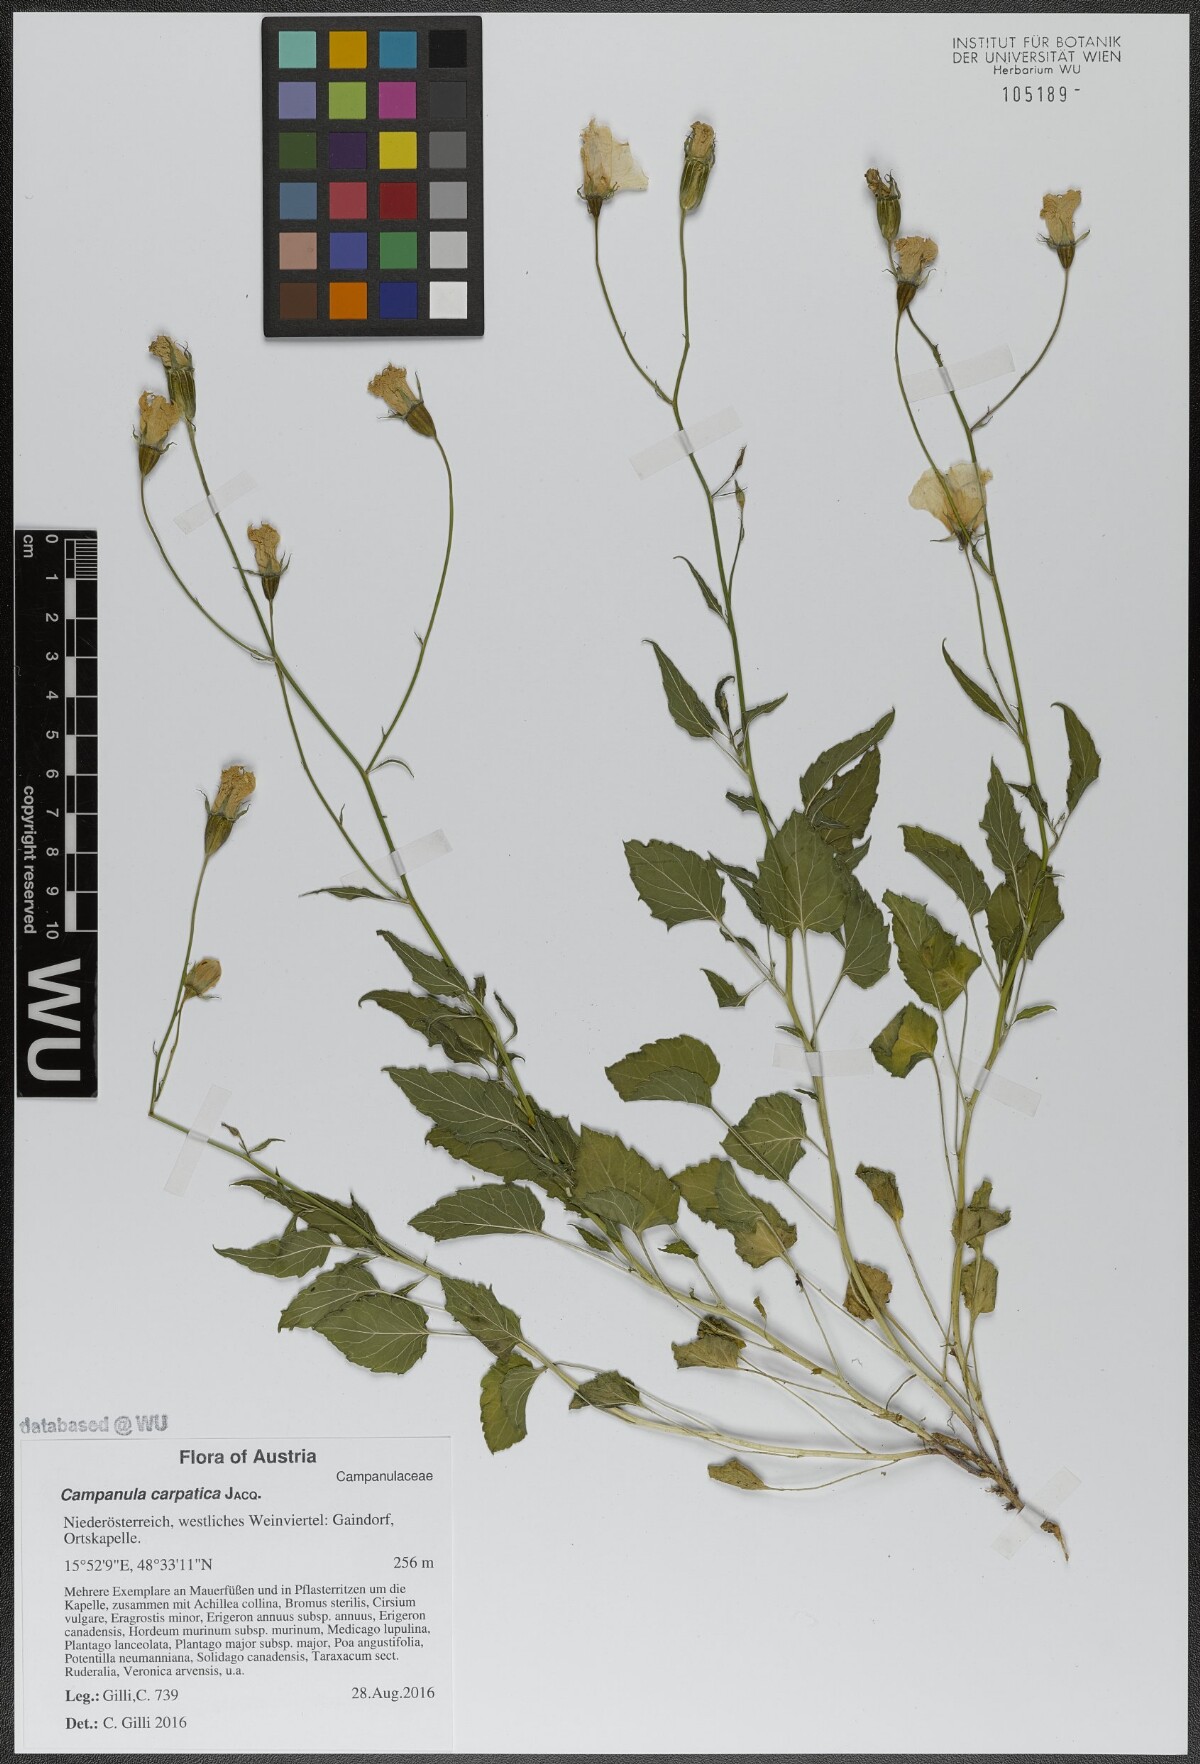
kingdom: Plantae
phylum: Tracheophyta
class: Magnoliopsida
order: Asterales
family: Campanulaceae
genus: Campanula
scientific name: Campanula carpatica
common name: Tussock bellflower
